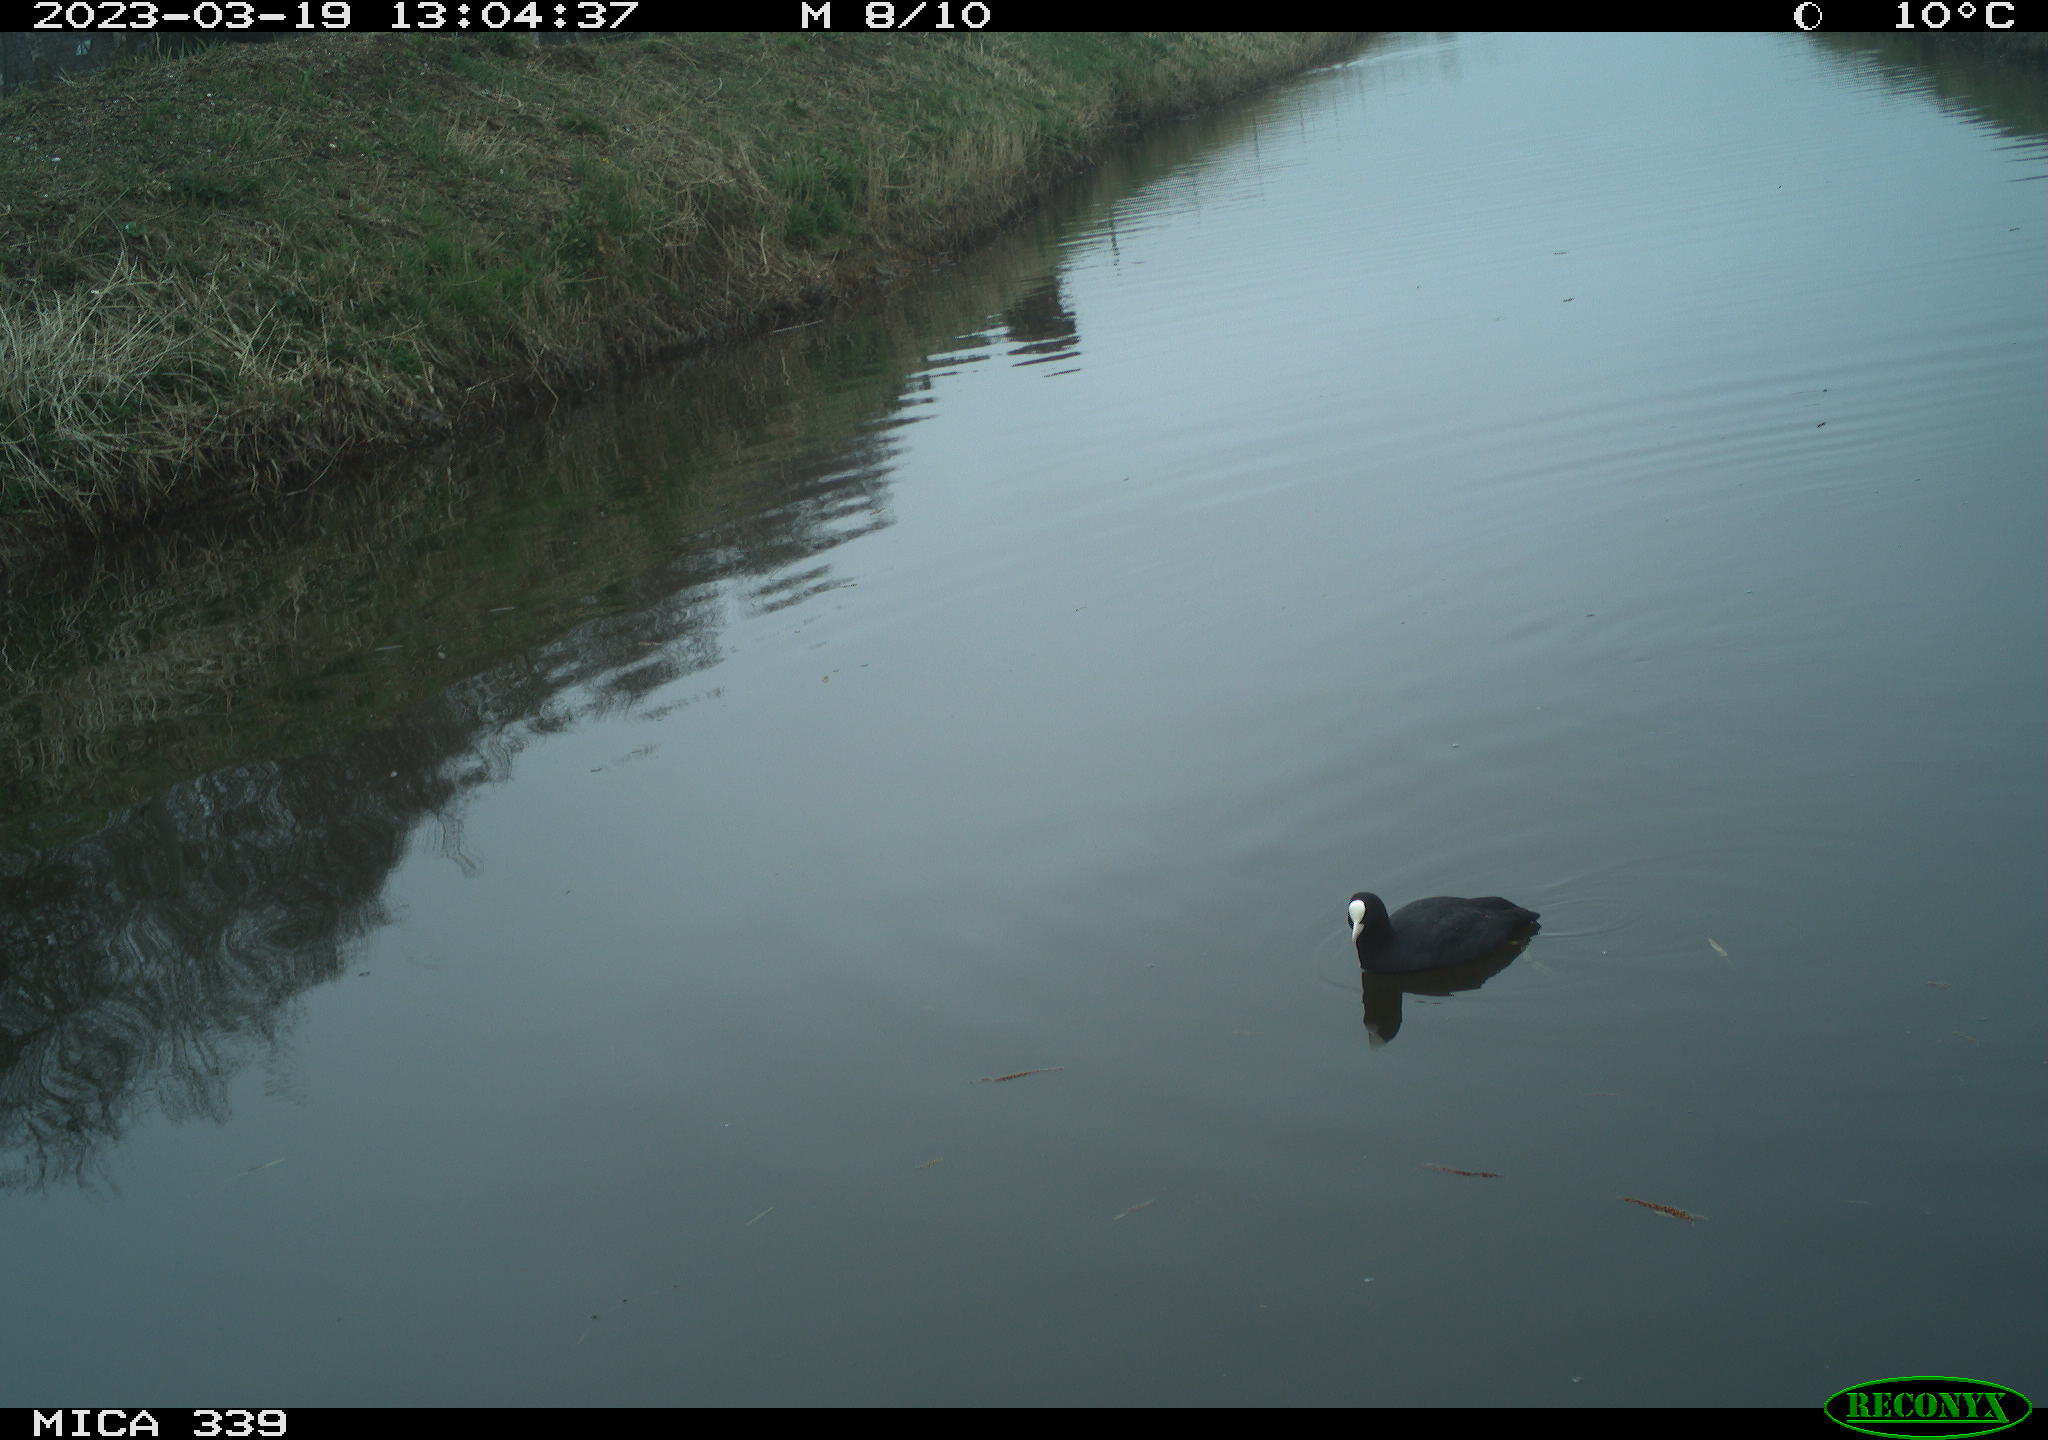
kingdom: Animalia
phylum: Chordata
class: Aves
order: Gruiformes
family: Rallidae
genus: Fulica
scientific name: Fulica atra
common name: Eurasian coot
